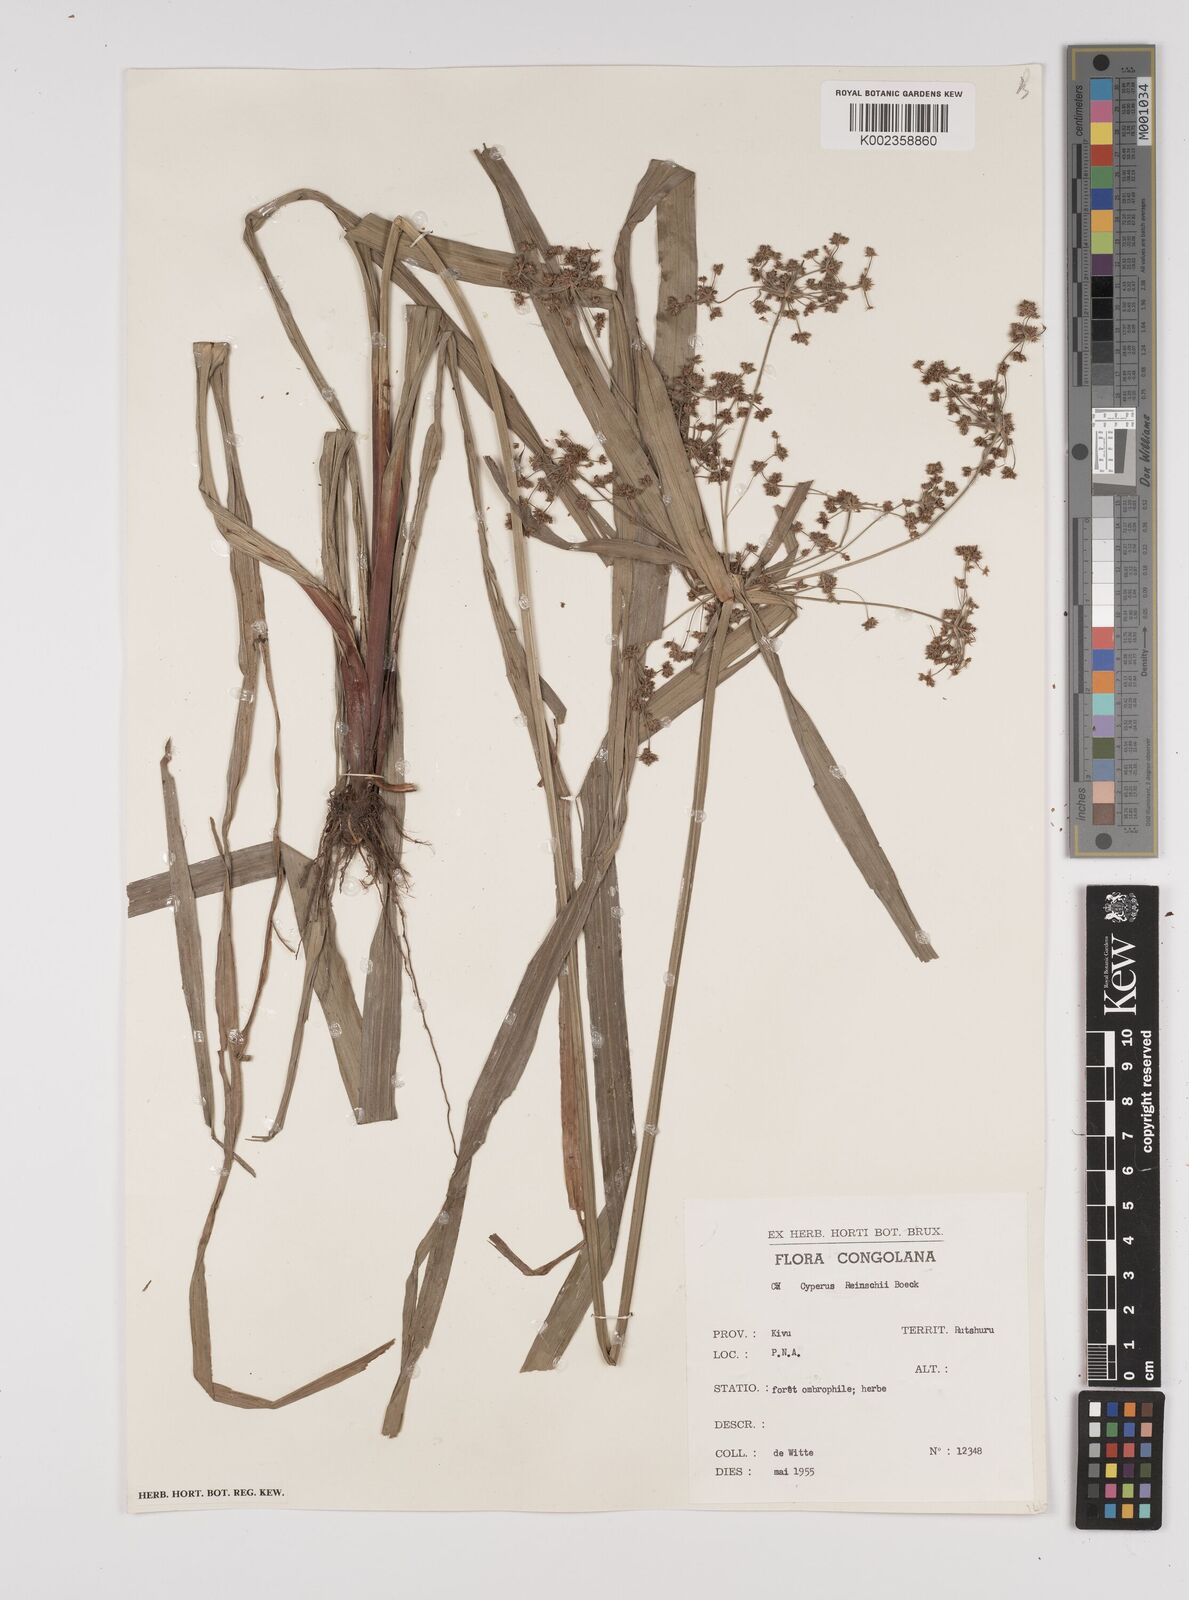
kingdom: Plantae
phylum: Tracheophyta
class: Liliopsida
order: Poales
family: Cyperaceae
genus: Cyperus
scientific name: Cyperus glaucophyllus
